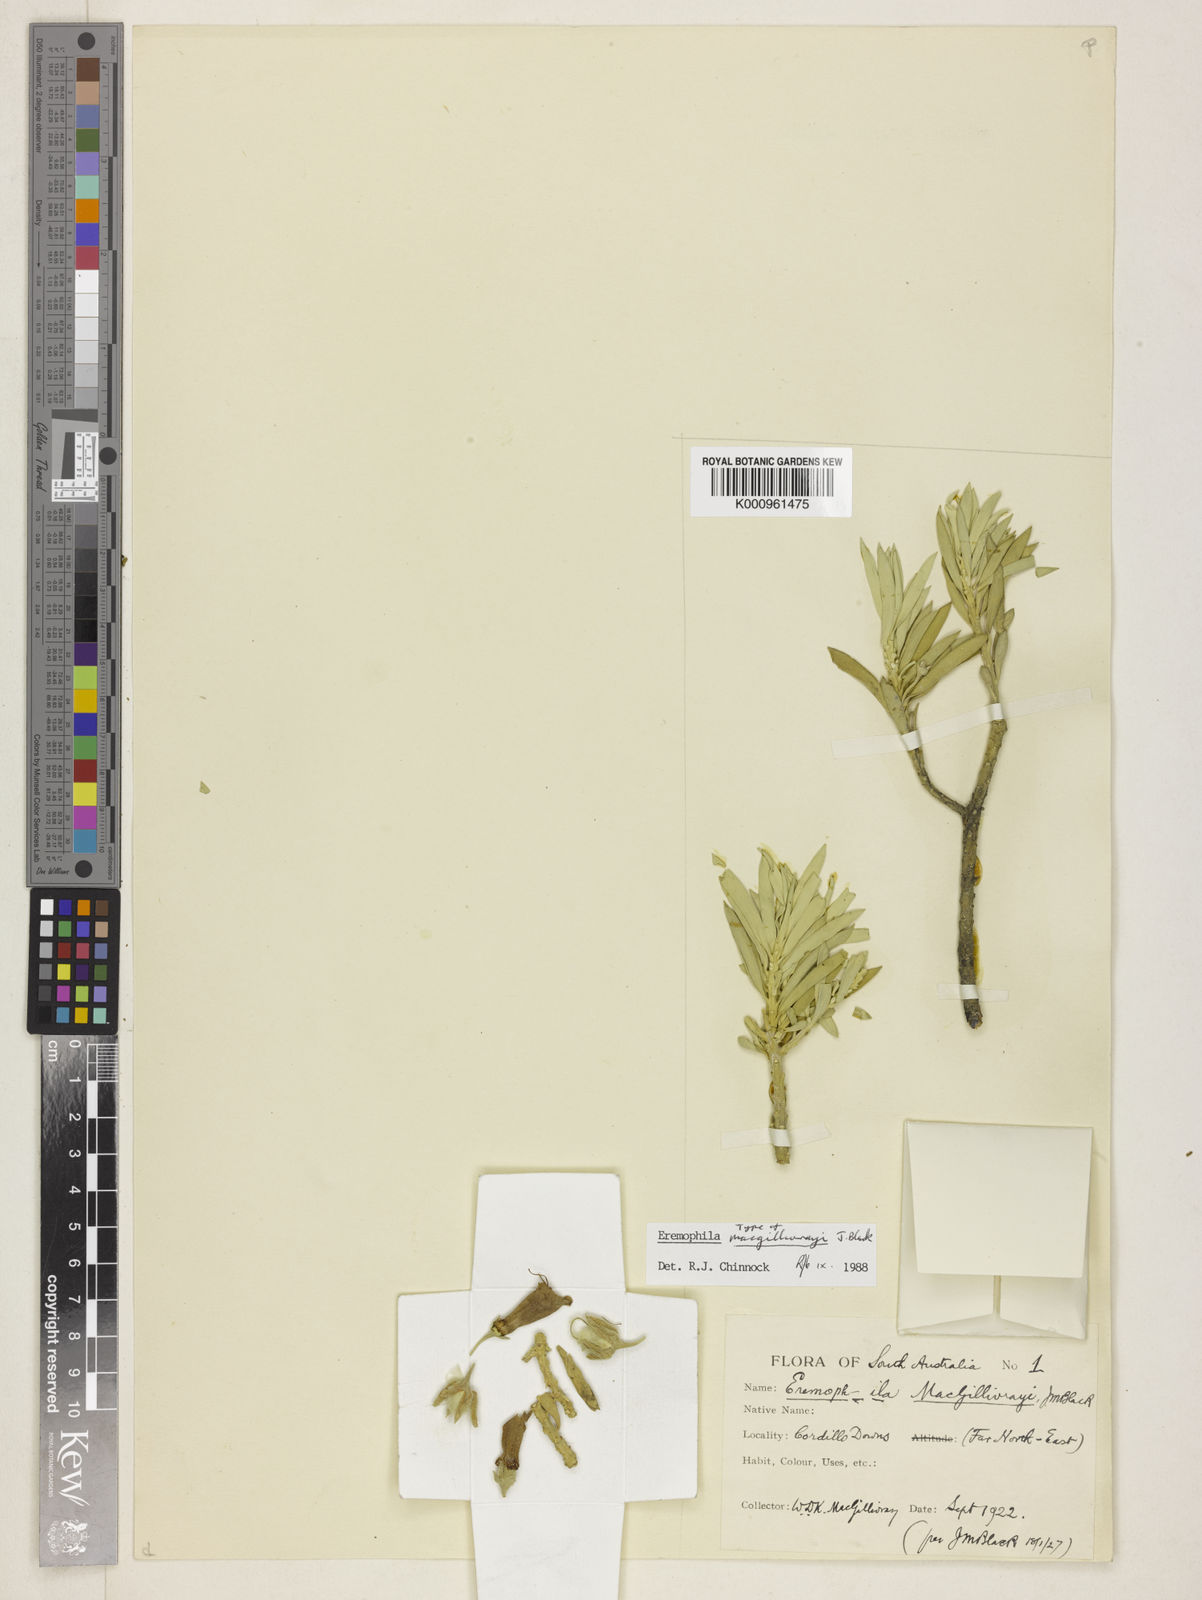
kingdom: Plantae
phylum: Tracheophyta
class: Magnoliopsida
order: Lamiales
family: Scrophulariaceae
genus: Eremophila
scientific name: Eremophila macgillivrayi
